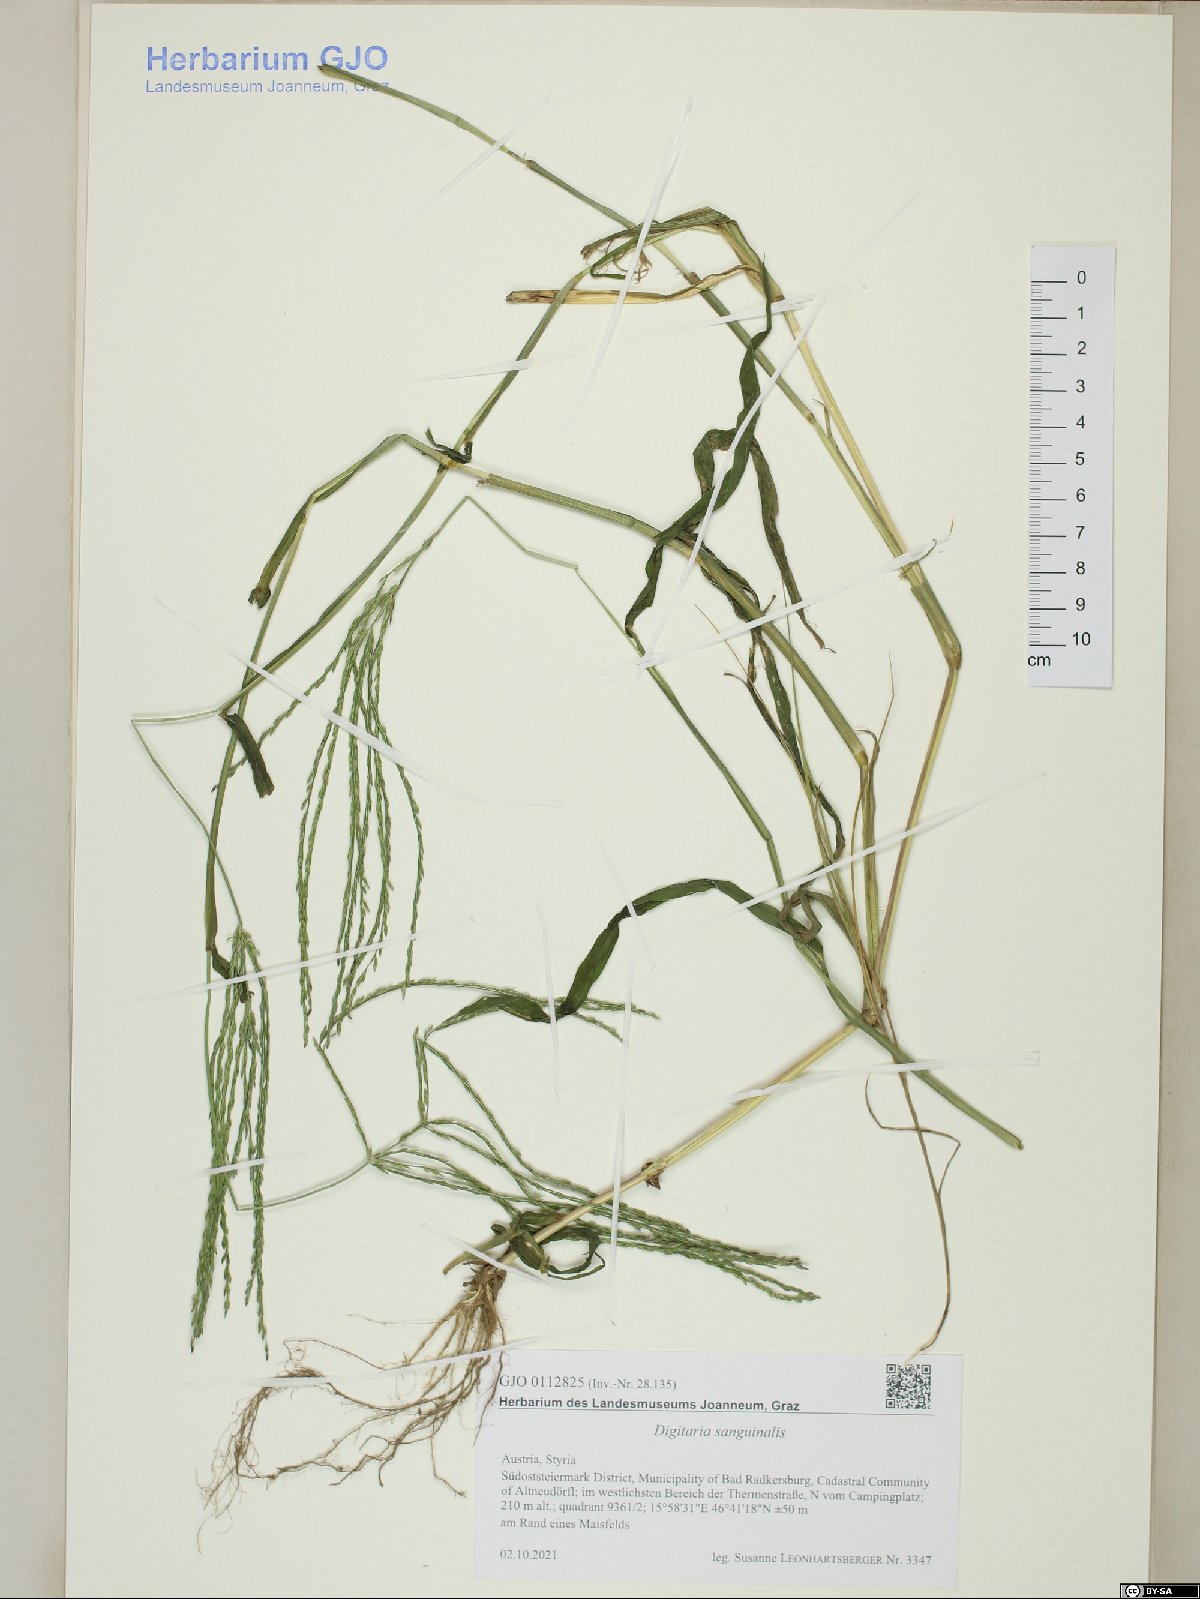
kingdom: Plantae
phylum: Tracheophyta
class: Liliopsida
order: Poales
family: Poaceae
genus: Digitaria
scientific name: Digitaria sanguinalis
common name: Hairy crabgrass
